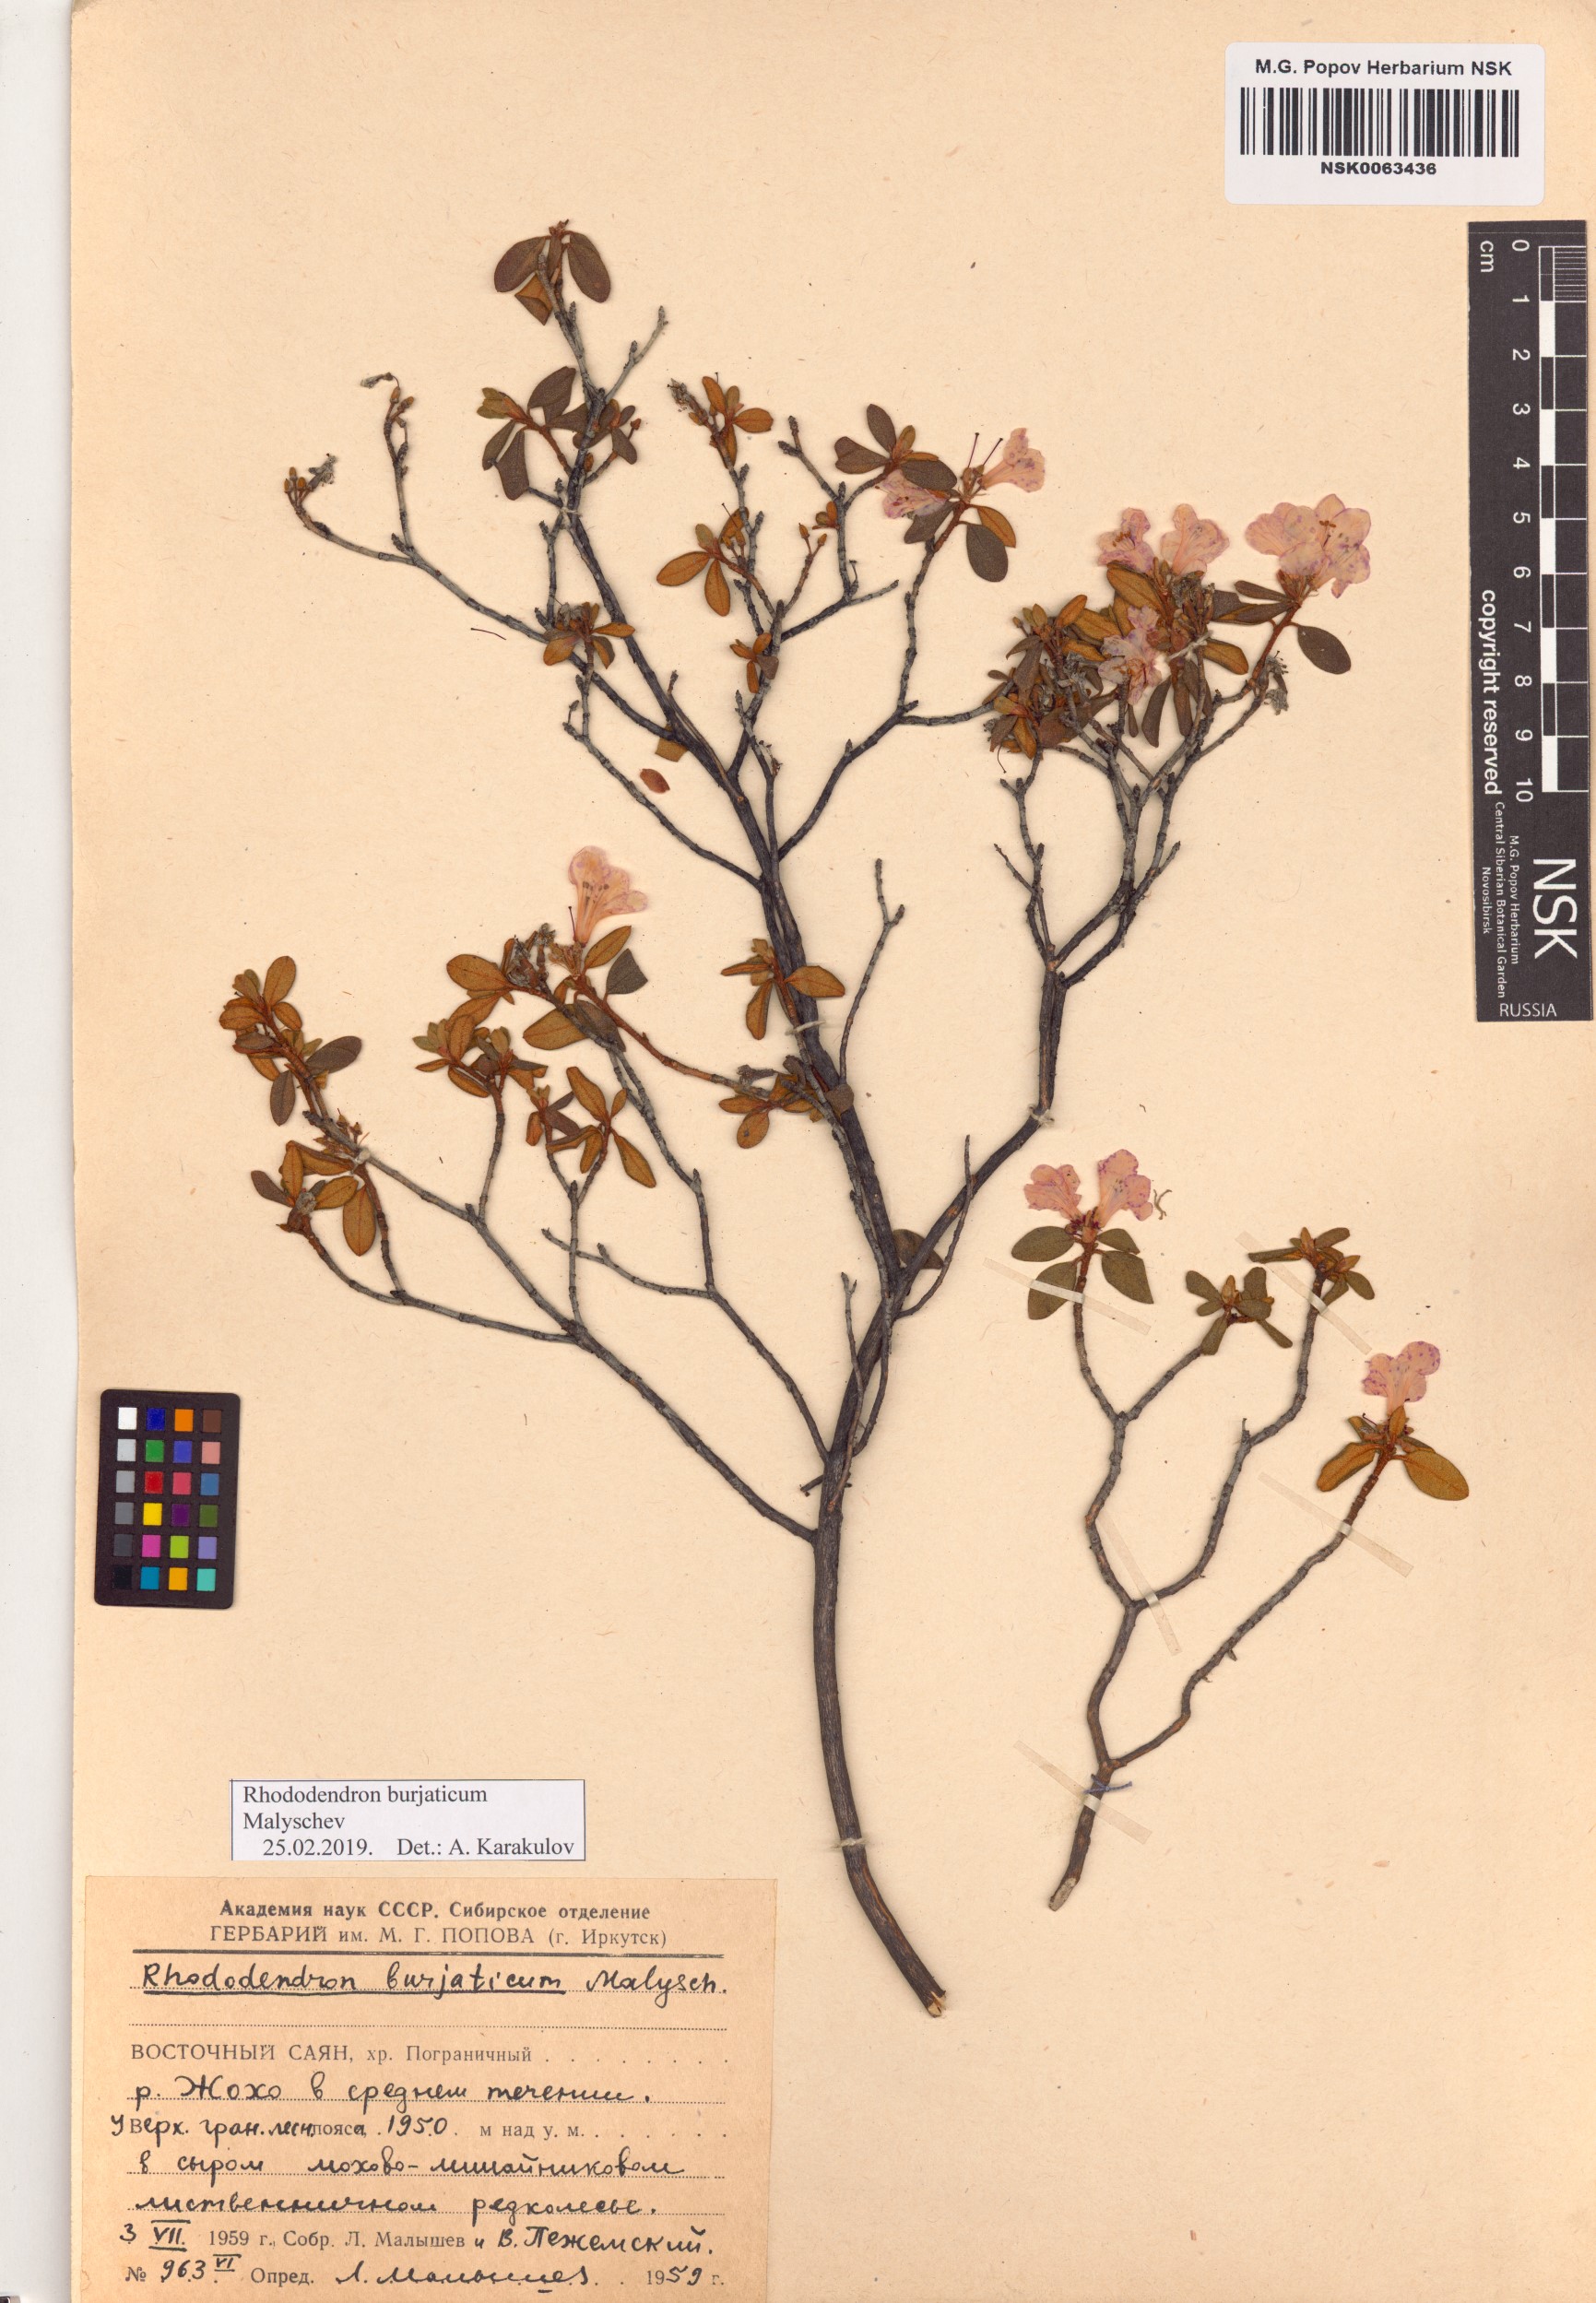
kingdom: Plantae
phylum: Tracheophyta
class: Magnoliopsida
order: Ericales
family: Ericaceae
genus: Rhododendron
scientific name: Rhododendron burjaticum
